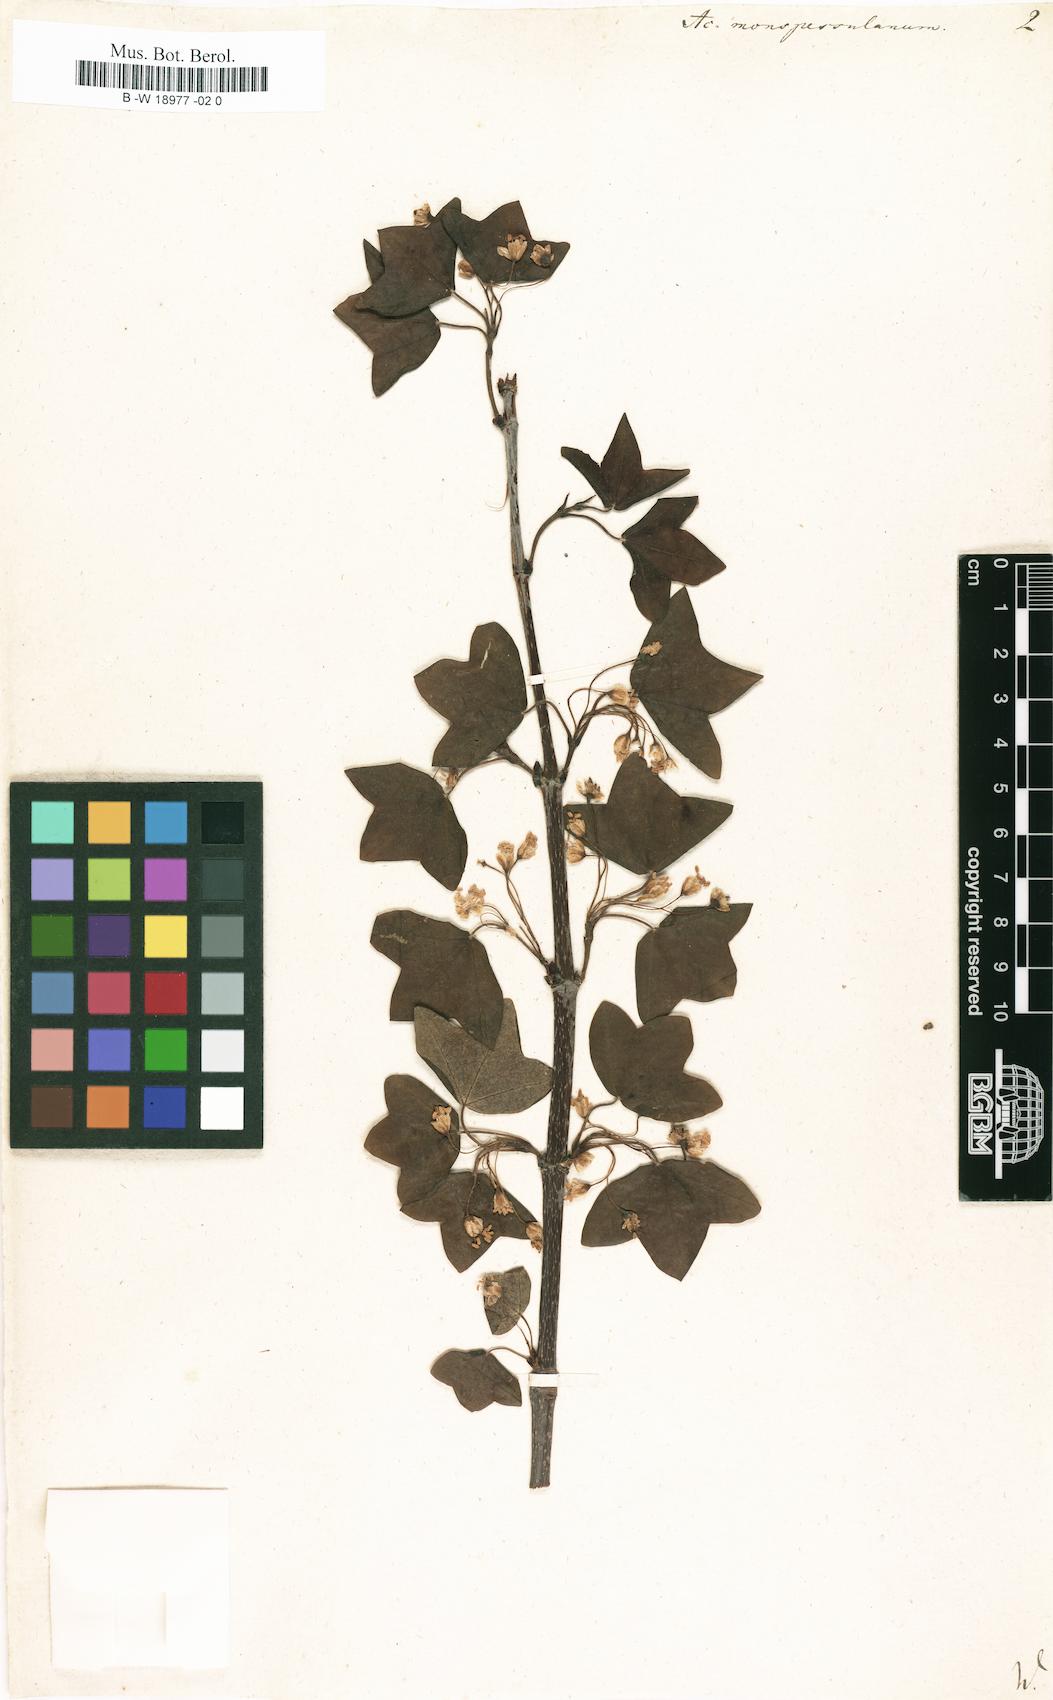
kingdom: Plantae
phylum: Tracheophyta
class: Magnoliopsida
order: Sapindales
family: Sapindaceae
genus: Acer
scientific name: Acer monspessulanum
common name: Montpellier maple
